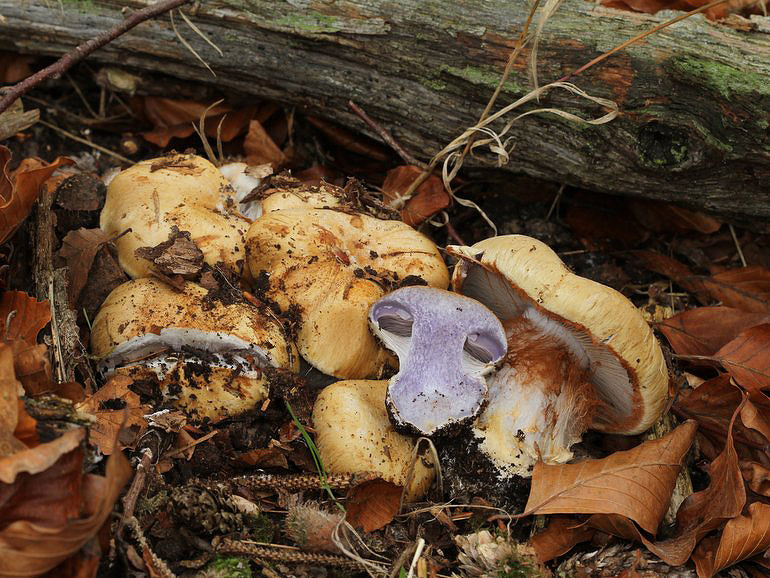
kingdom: Fungi
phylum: Basidiomycota
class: Agaricomycetes
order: Agaricales
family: Cortinariaceae
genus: Cortinarius
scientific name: Cortinarius anserinus
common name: bøge-slørhat
